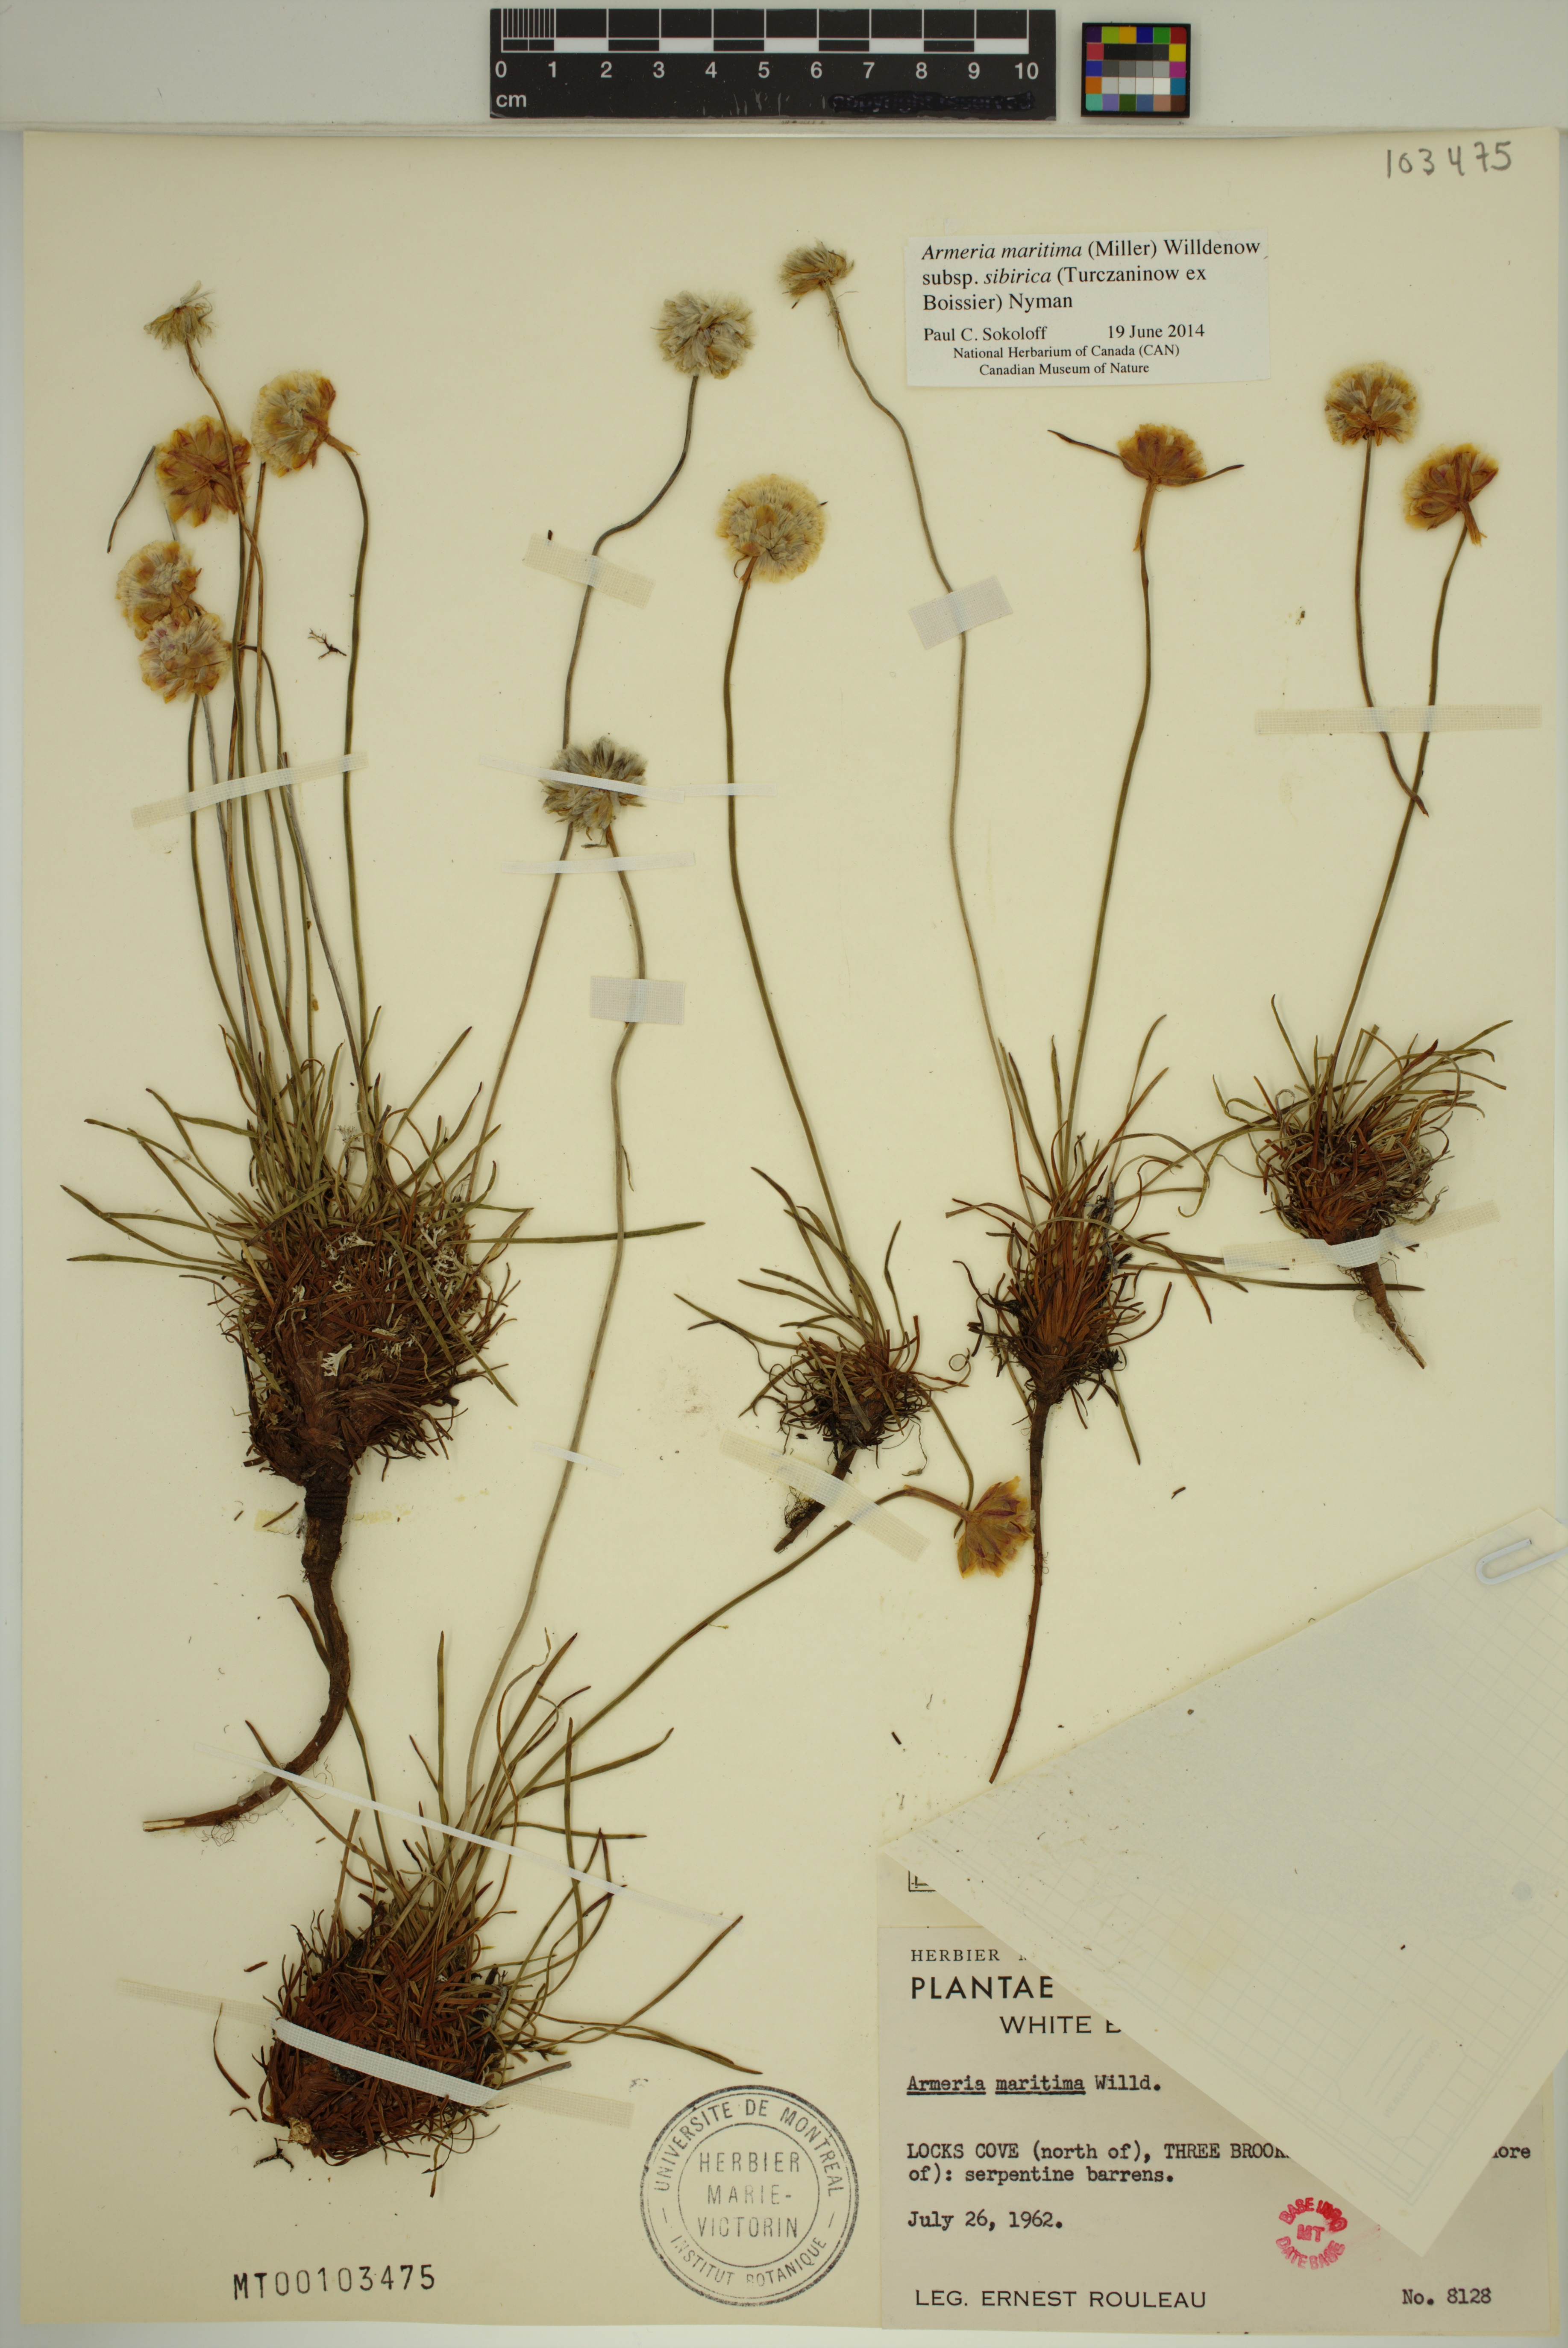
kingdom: Plantae
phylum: Tracheophyta
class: Magnoliopsida
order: Caryophyllales
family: Plumbaginaceae
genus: Armeria
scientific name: Armeria maritima
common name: Thrift
